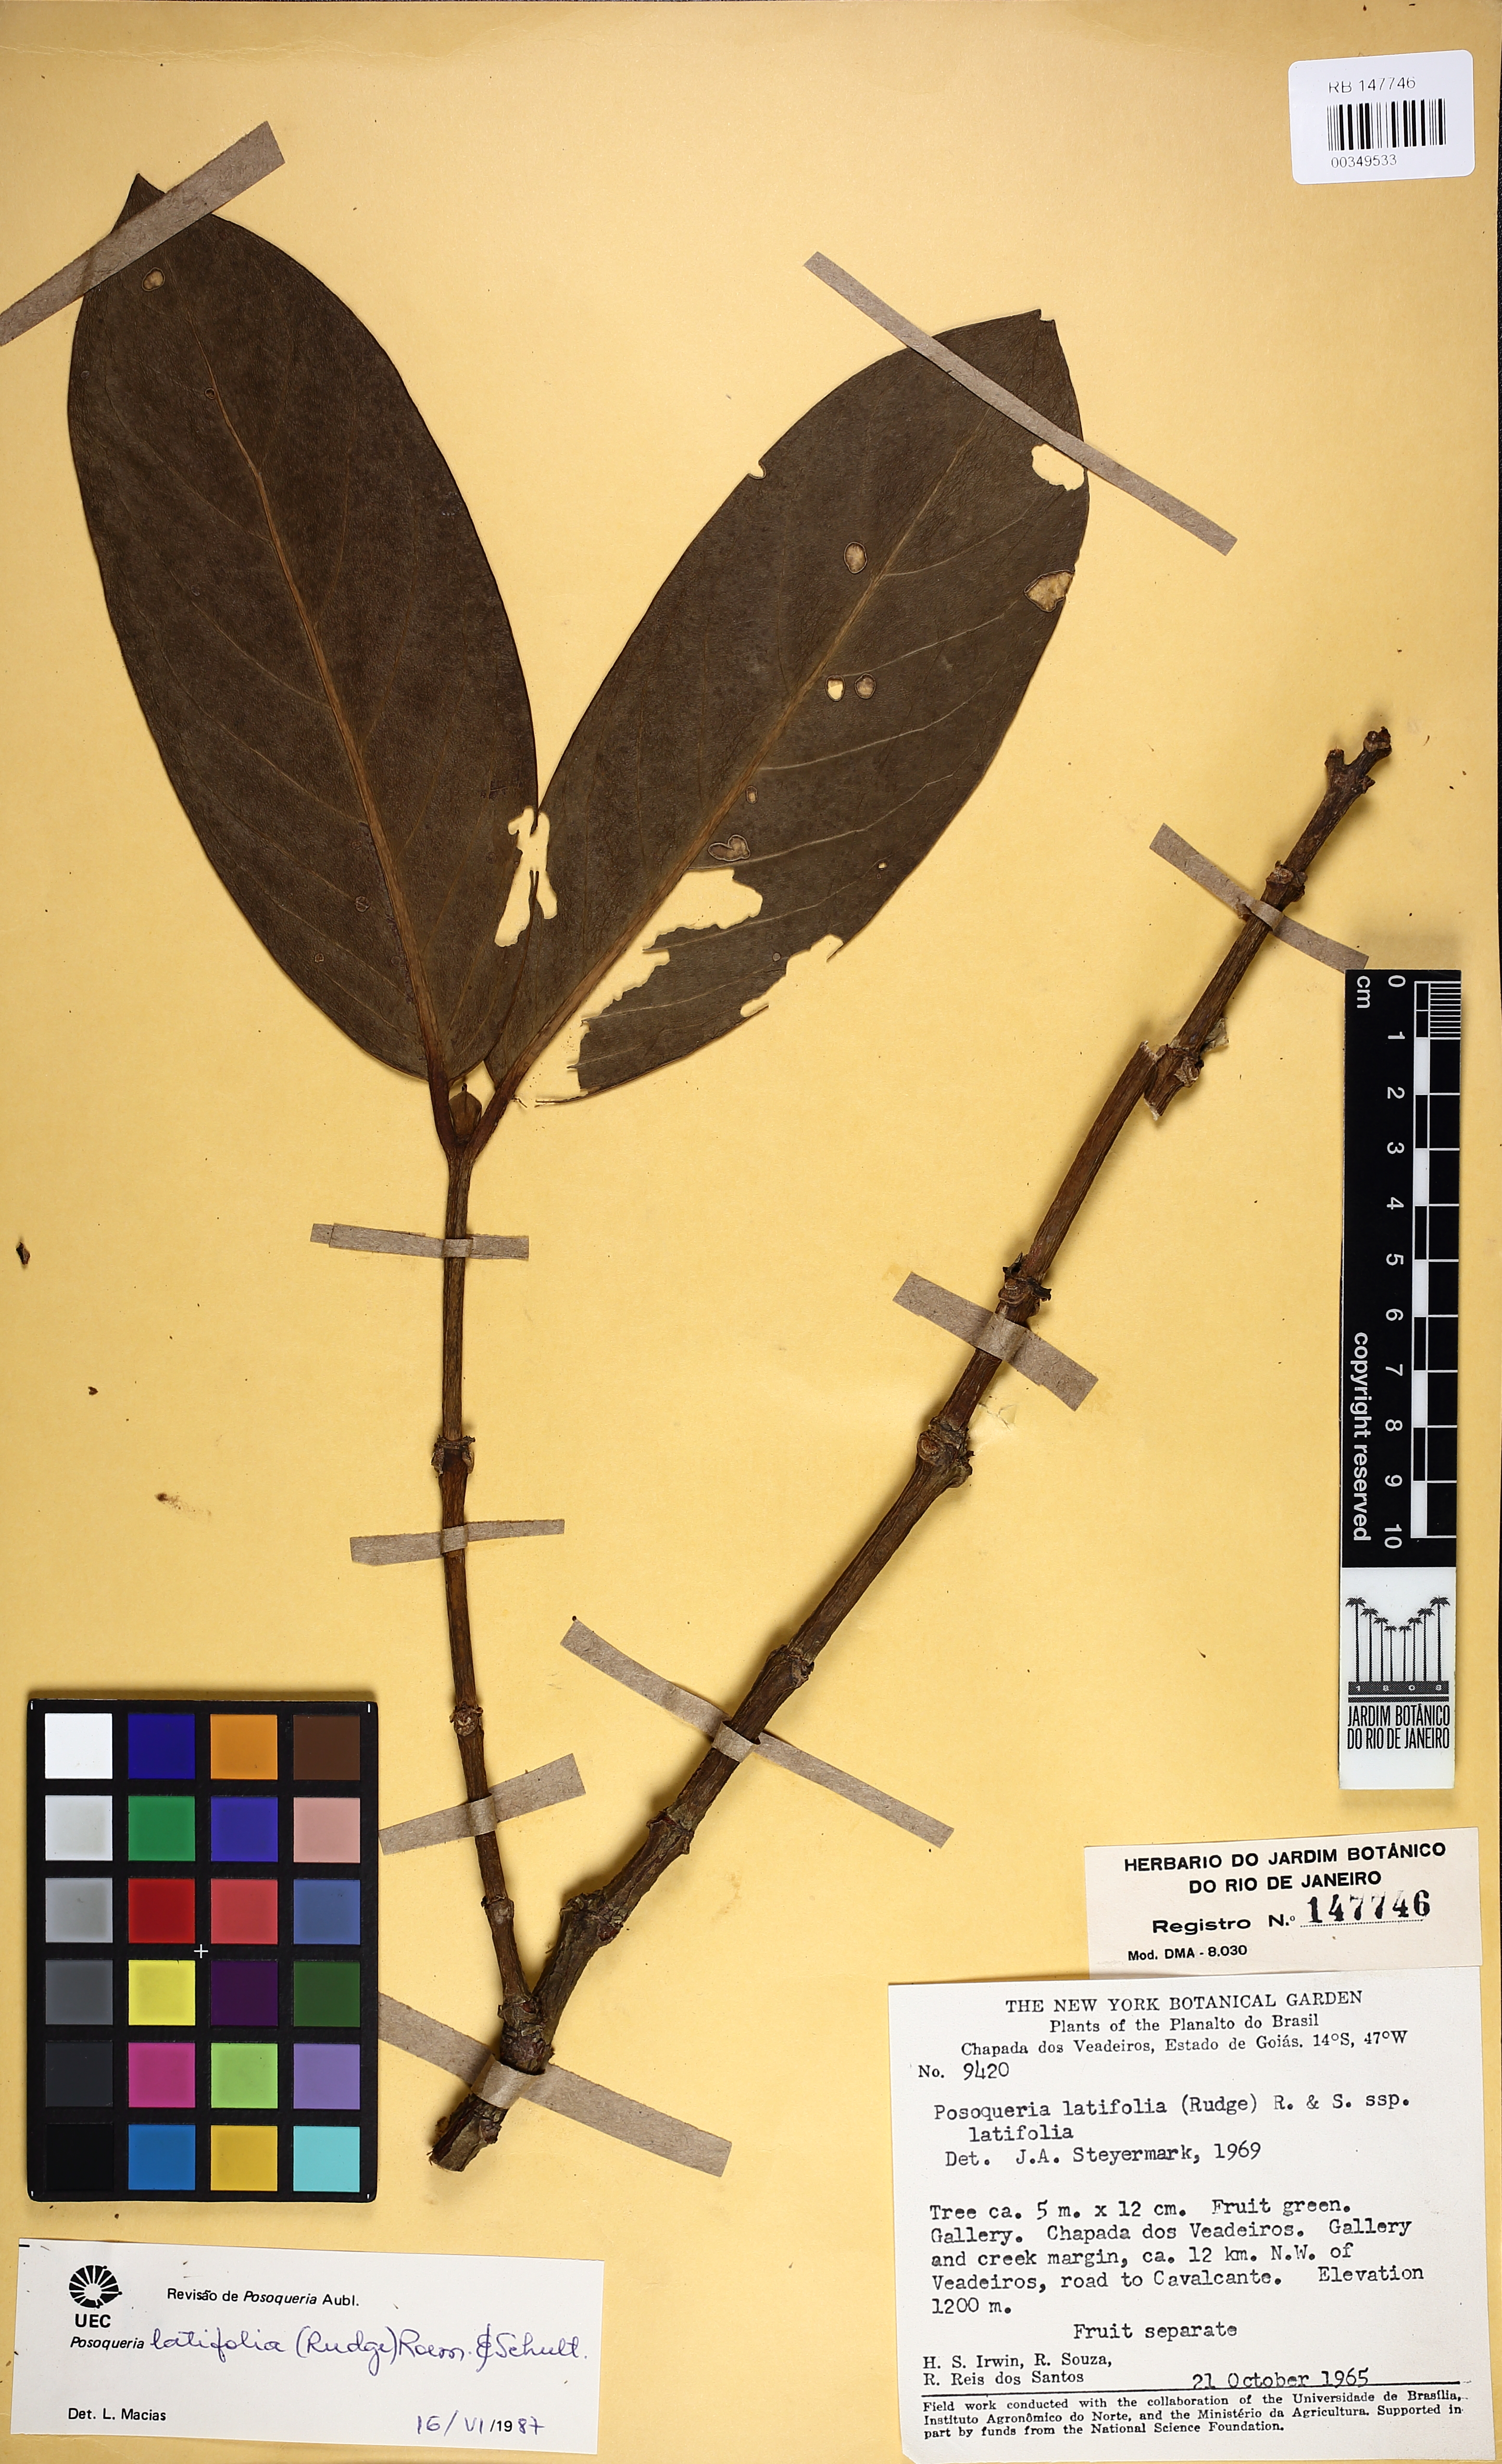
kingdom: Plantae
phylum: Tracheophyta
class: Magnoliopsida
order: Gentianales
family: Rubiaceae
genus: Posoqueria
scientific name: Posoqueria latifolia
